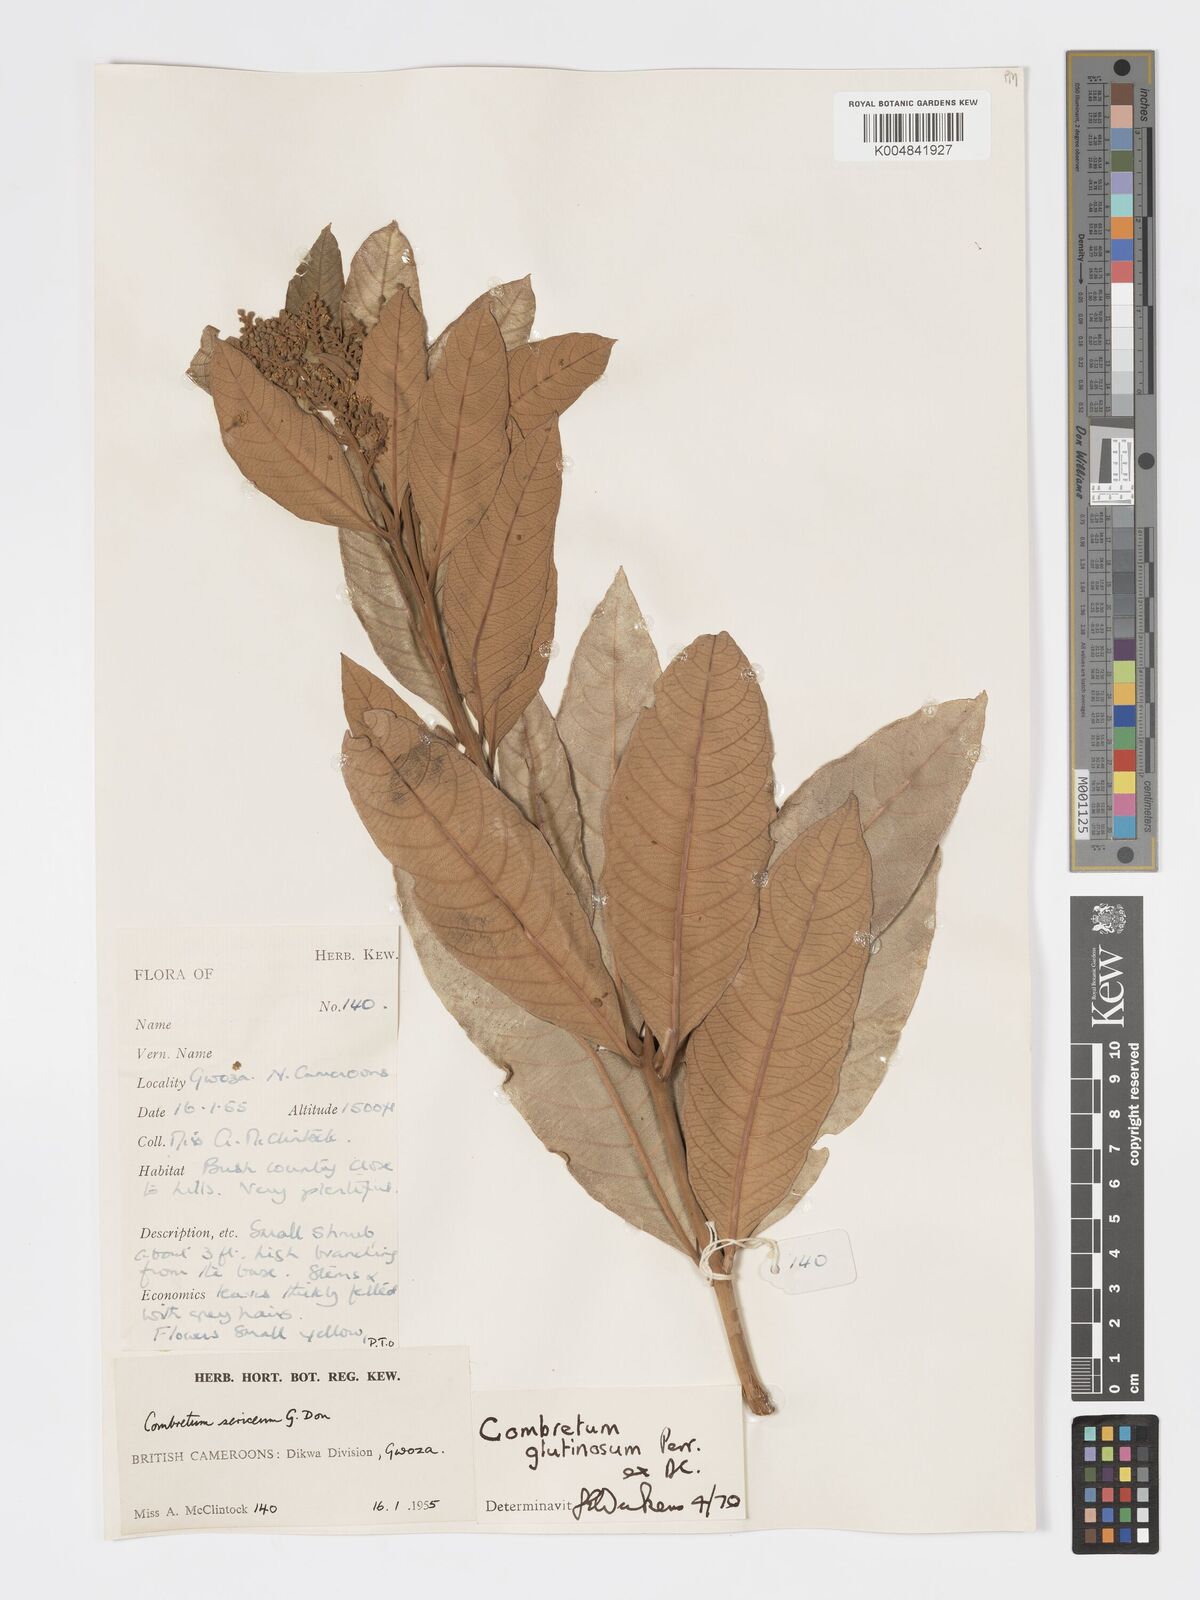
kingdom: Plantae
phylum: Tracheophyta
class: Magnoliopsida
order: Myrtales
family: Combretaceae
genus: Combretum
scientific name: Combretum
